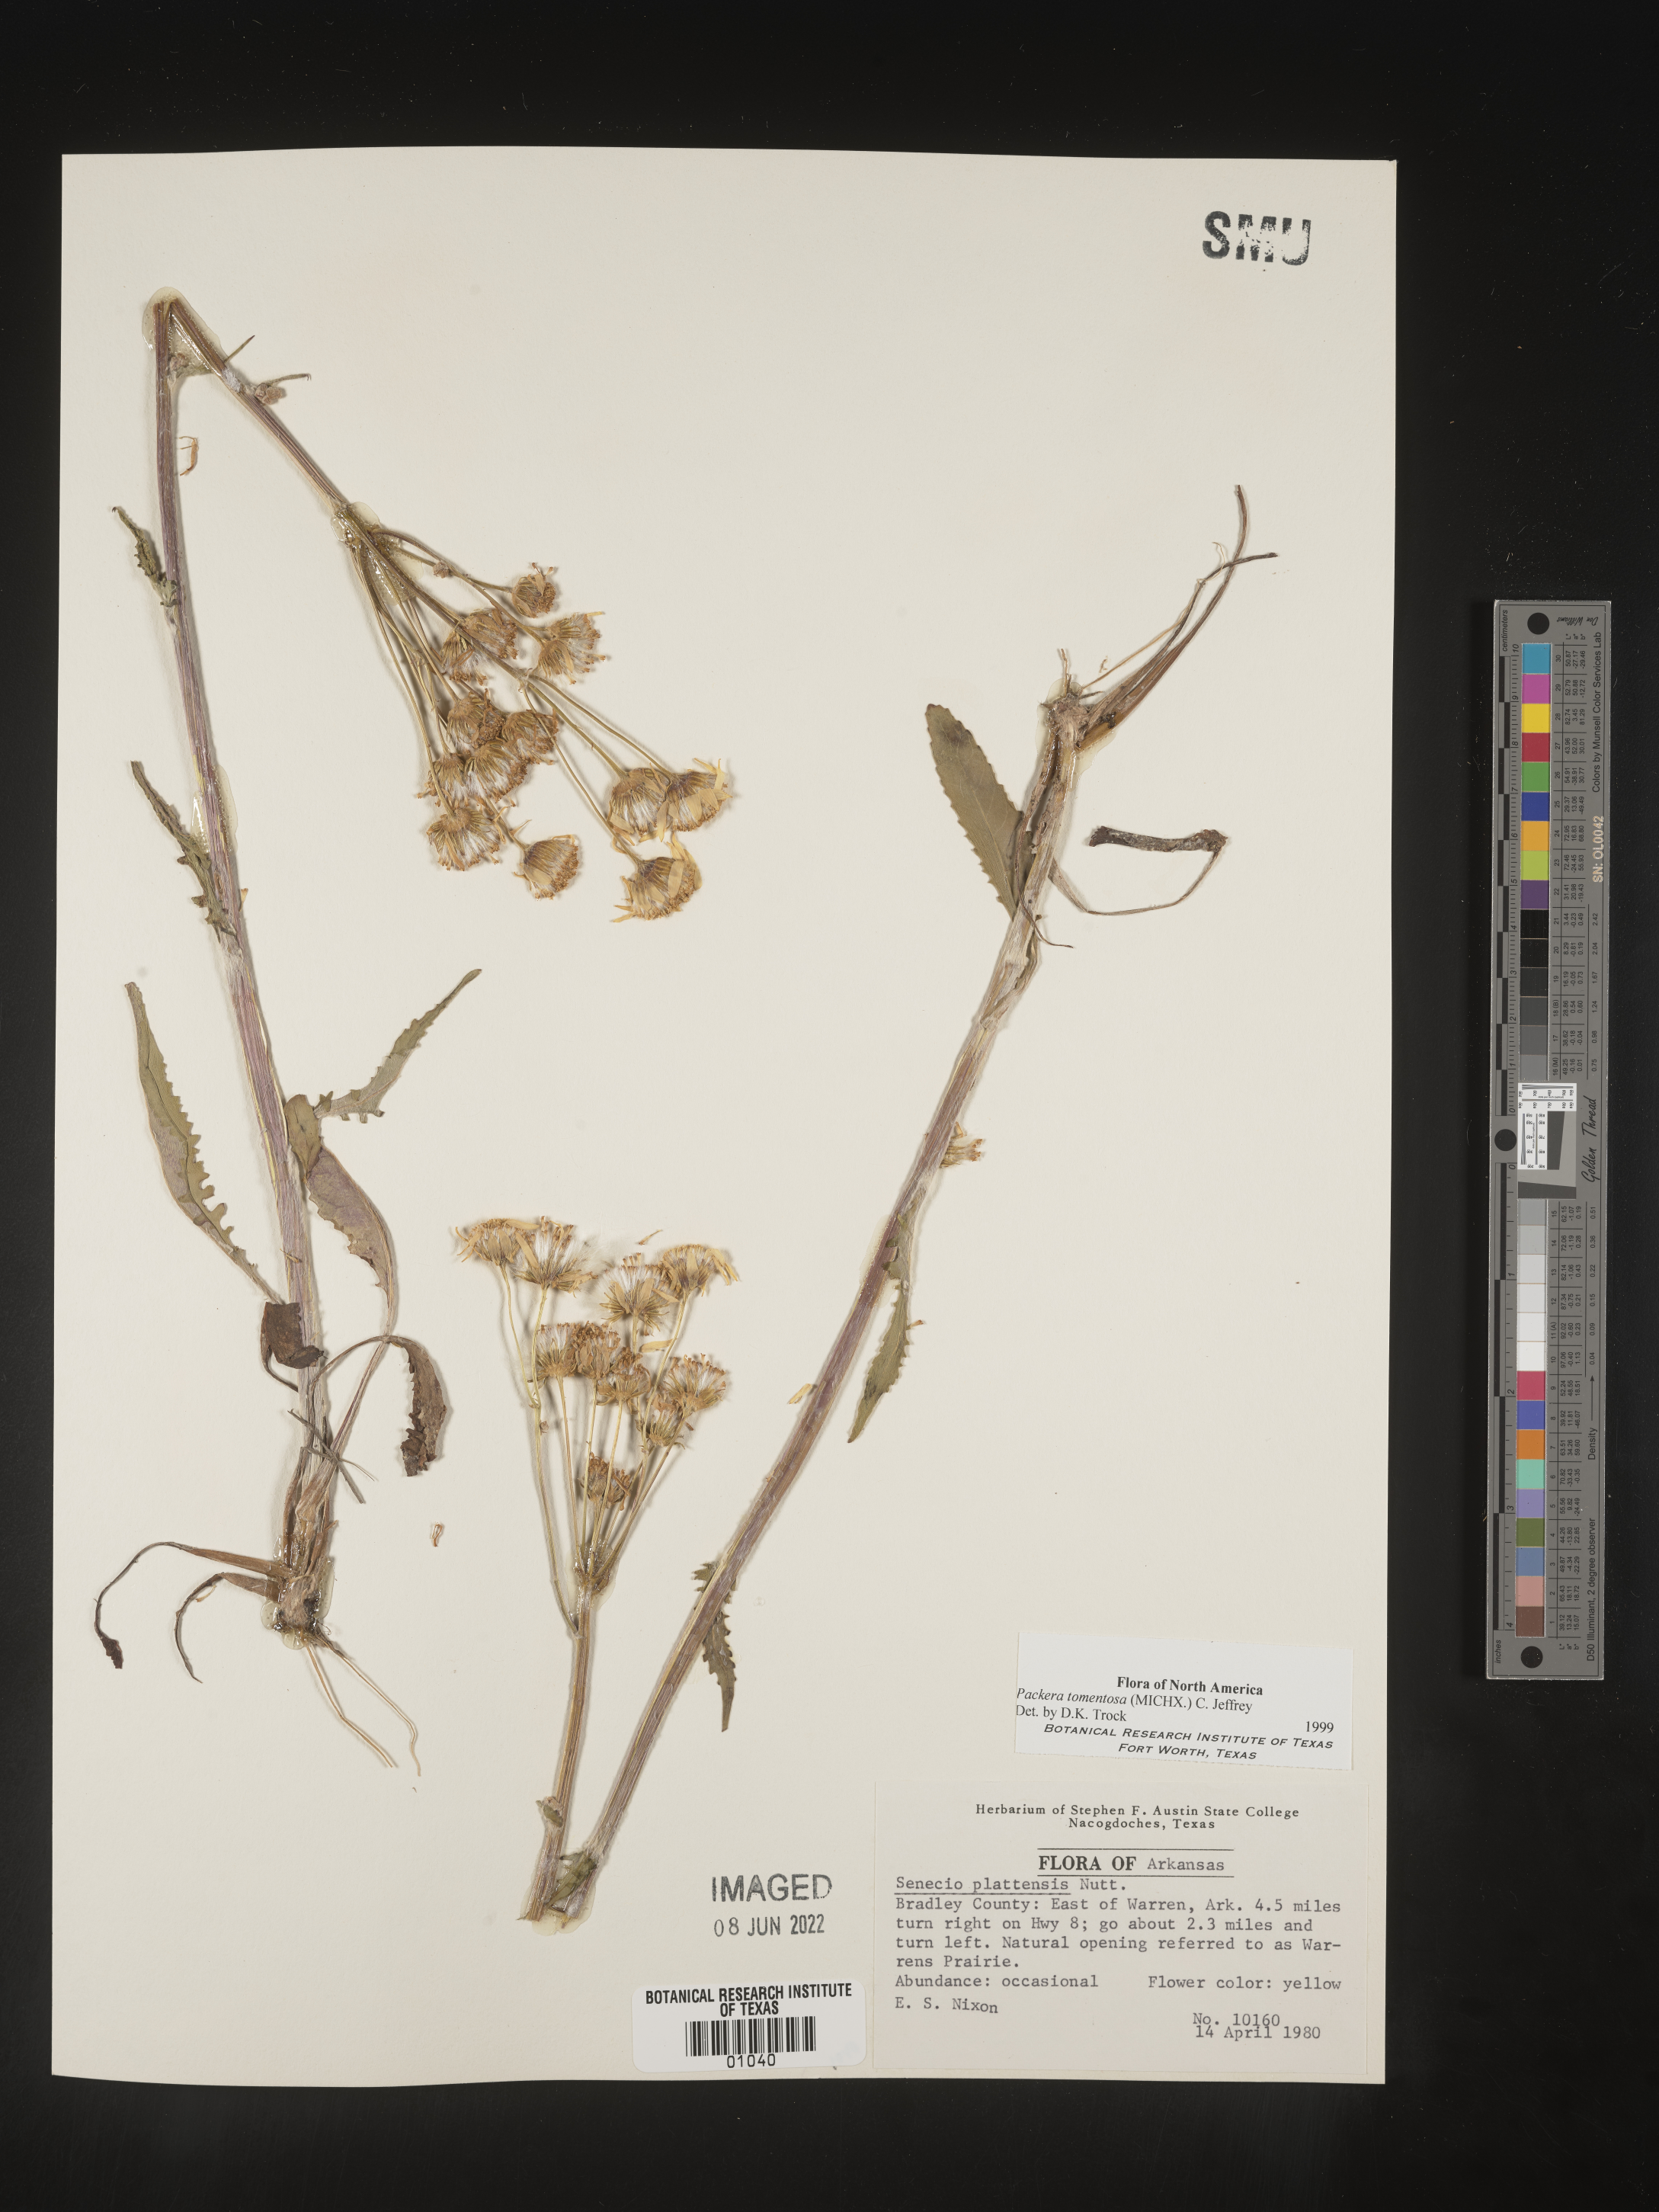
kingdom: Plantae
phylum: Tracheophyta
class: Magnoliopsida
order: Asterales
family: Asteraceae
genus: Packera
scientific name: Packera dubia
